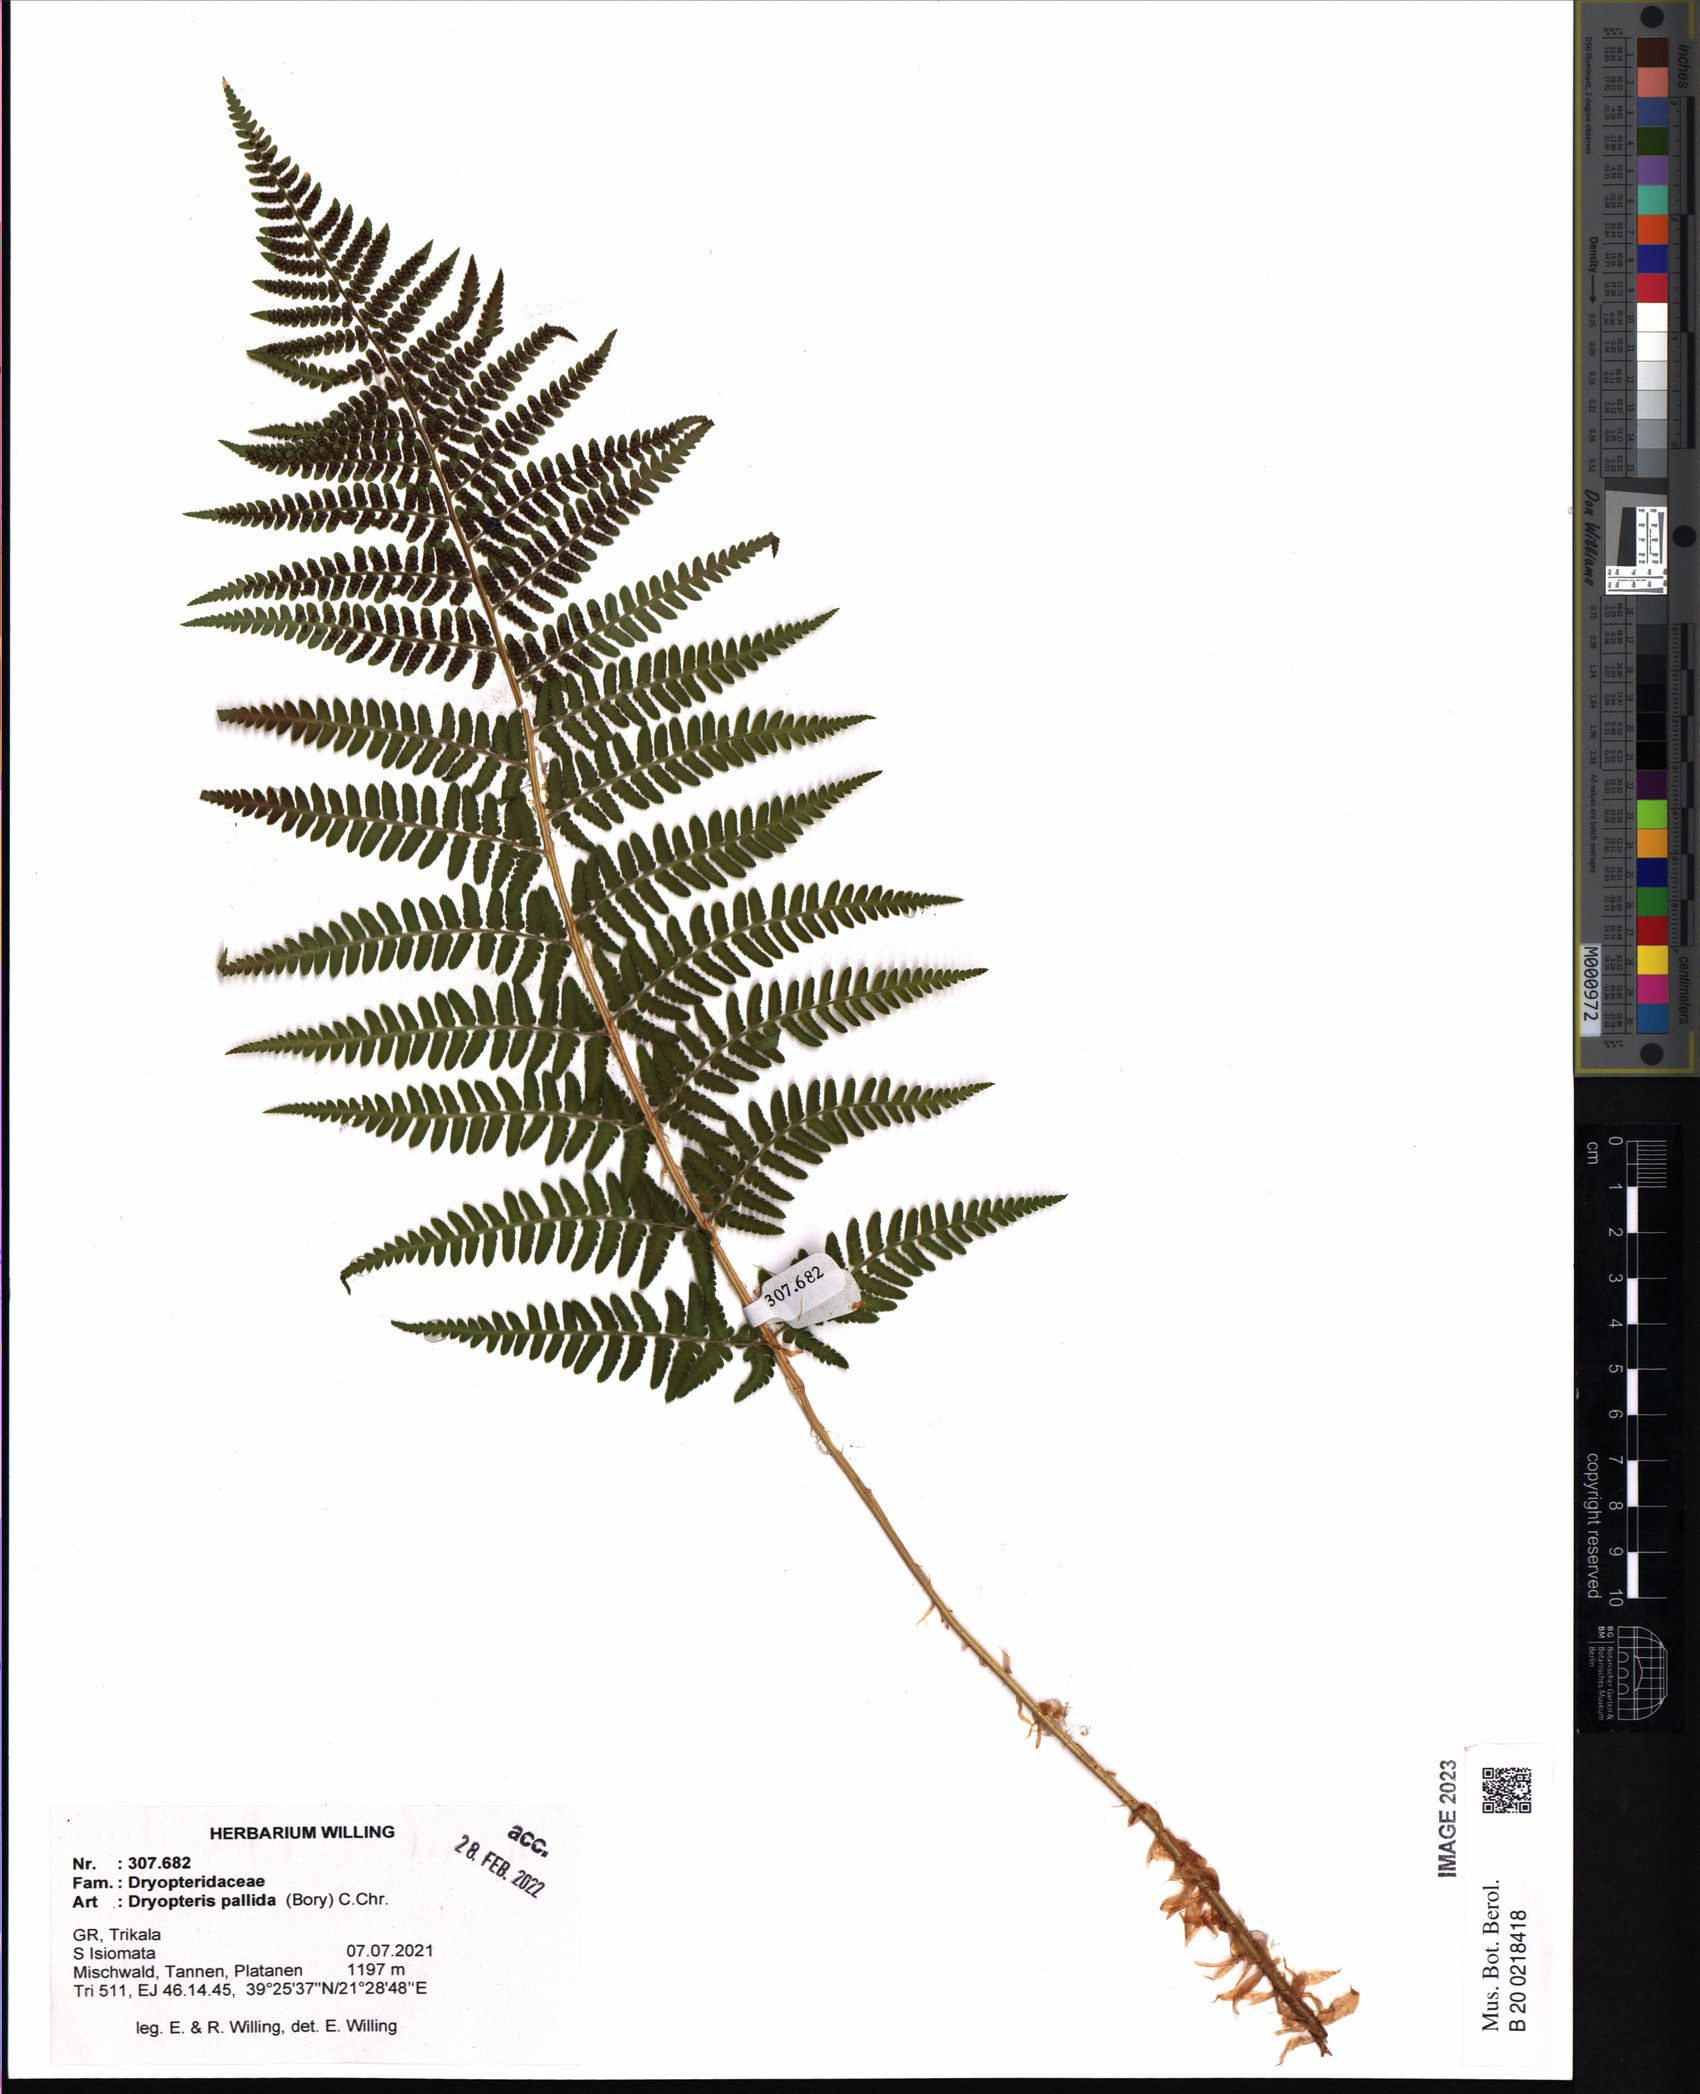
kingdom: Plantae
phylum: Tracheophyta
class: Polypodiopsida
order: Polypodiales
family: Dryopteridaceae
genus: Dryopteris
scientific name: Dryopteris pallida
